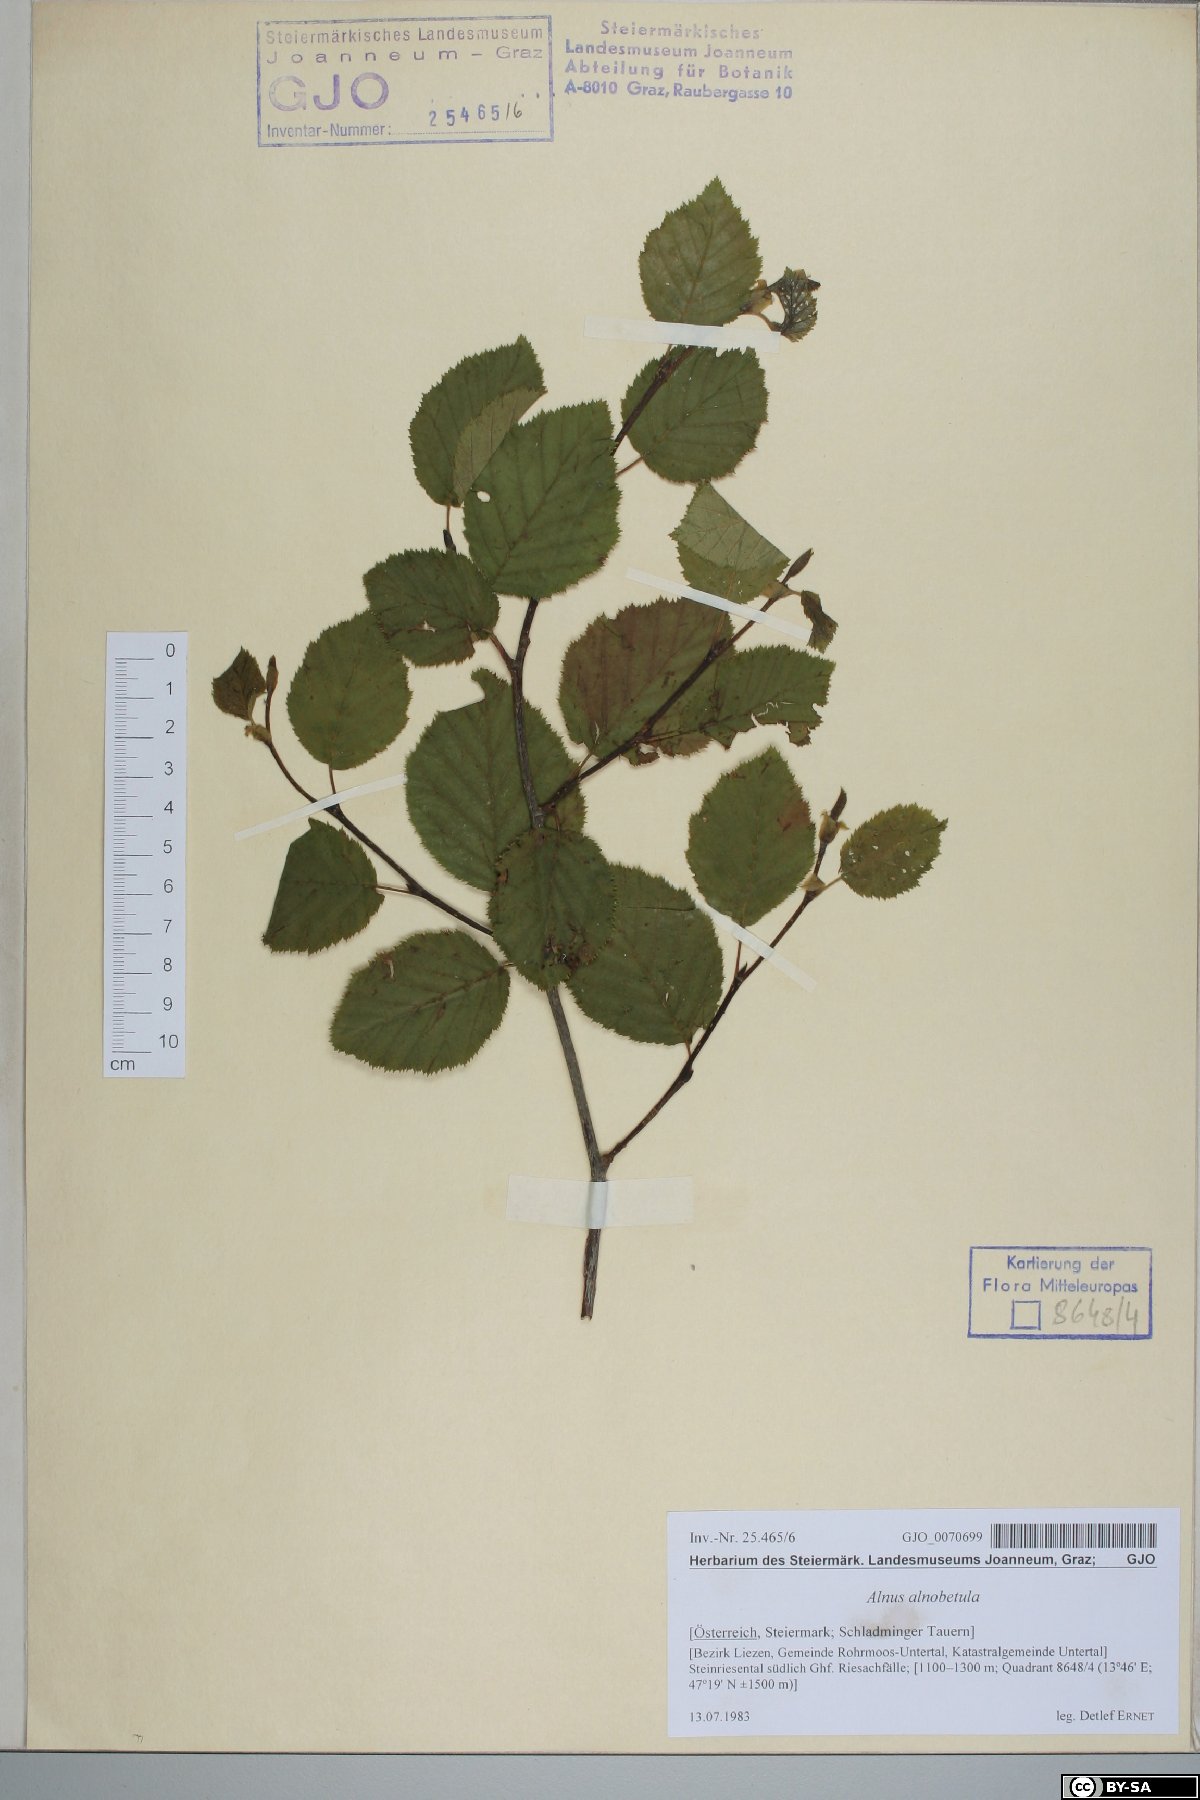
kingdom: Plantae
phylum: Tracheophyta
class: Magnoliopsida
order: Fagales
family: Betulaceae
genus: Alnus
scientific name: Alnus alnobetula
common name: Green alder
